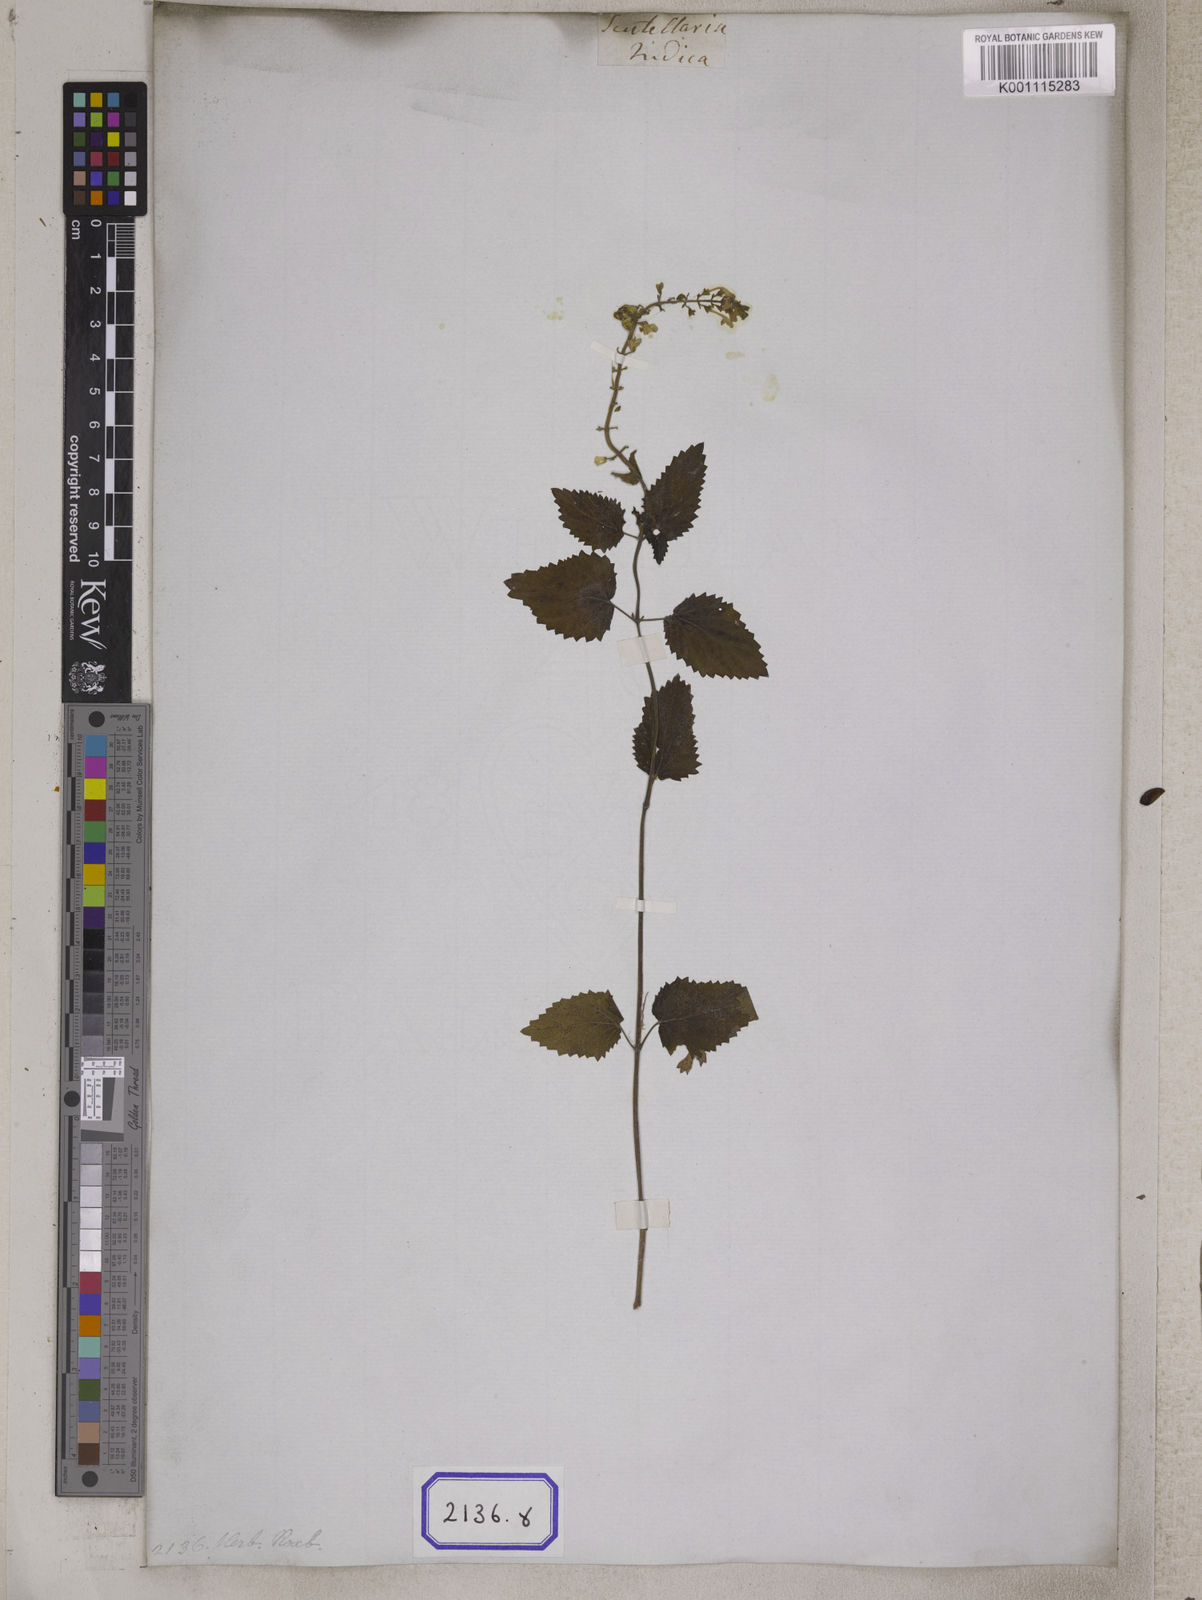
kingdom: Plantae
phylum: Tracheophyta
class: Magnoliopsida
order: Lamiales
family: Lamiaceae
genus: Scutellaria
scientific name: Scutellaria
